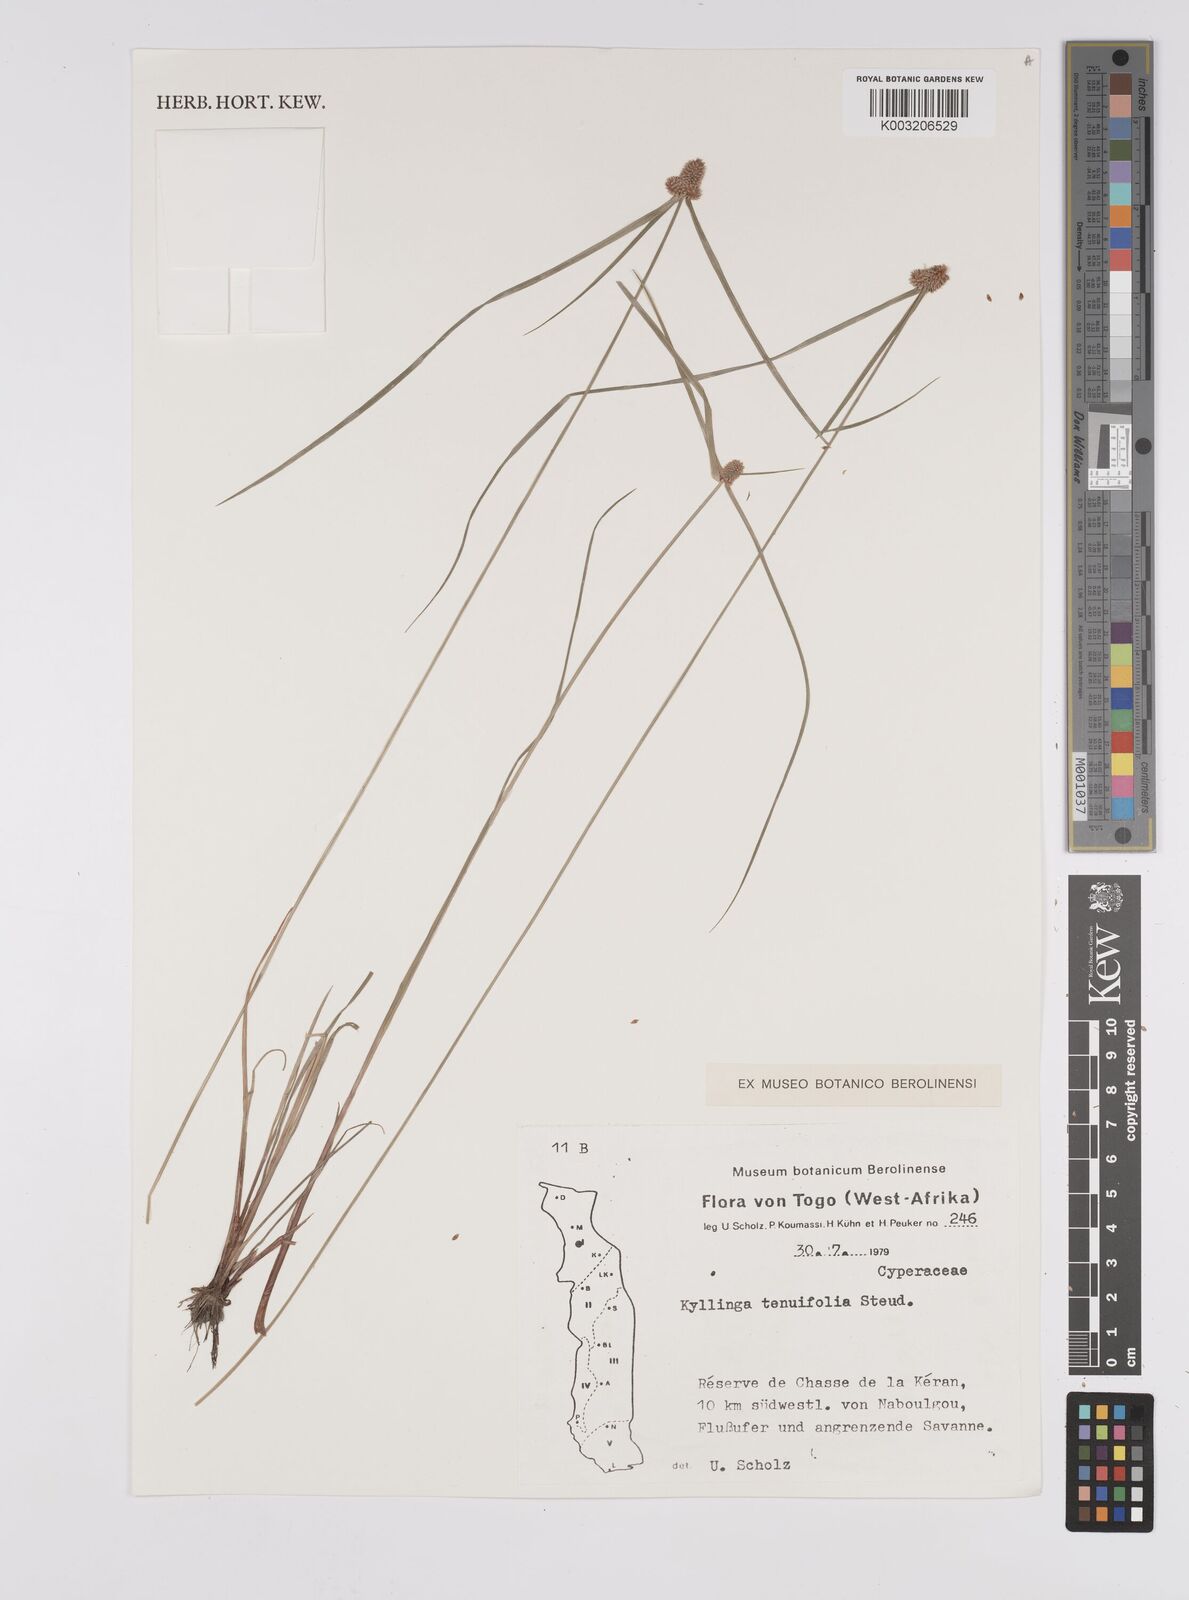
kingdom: Plantae
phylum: Tracheophyta
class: Liliopsida
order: Poales
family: Cyperaceae
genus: Cyperus
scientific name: Cyperus
